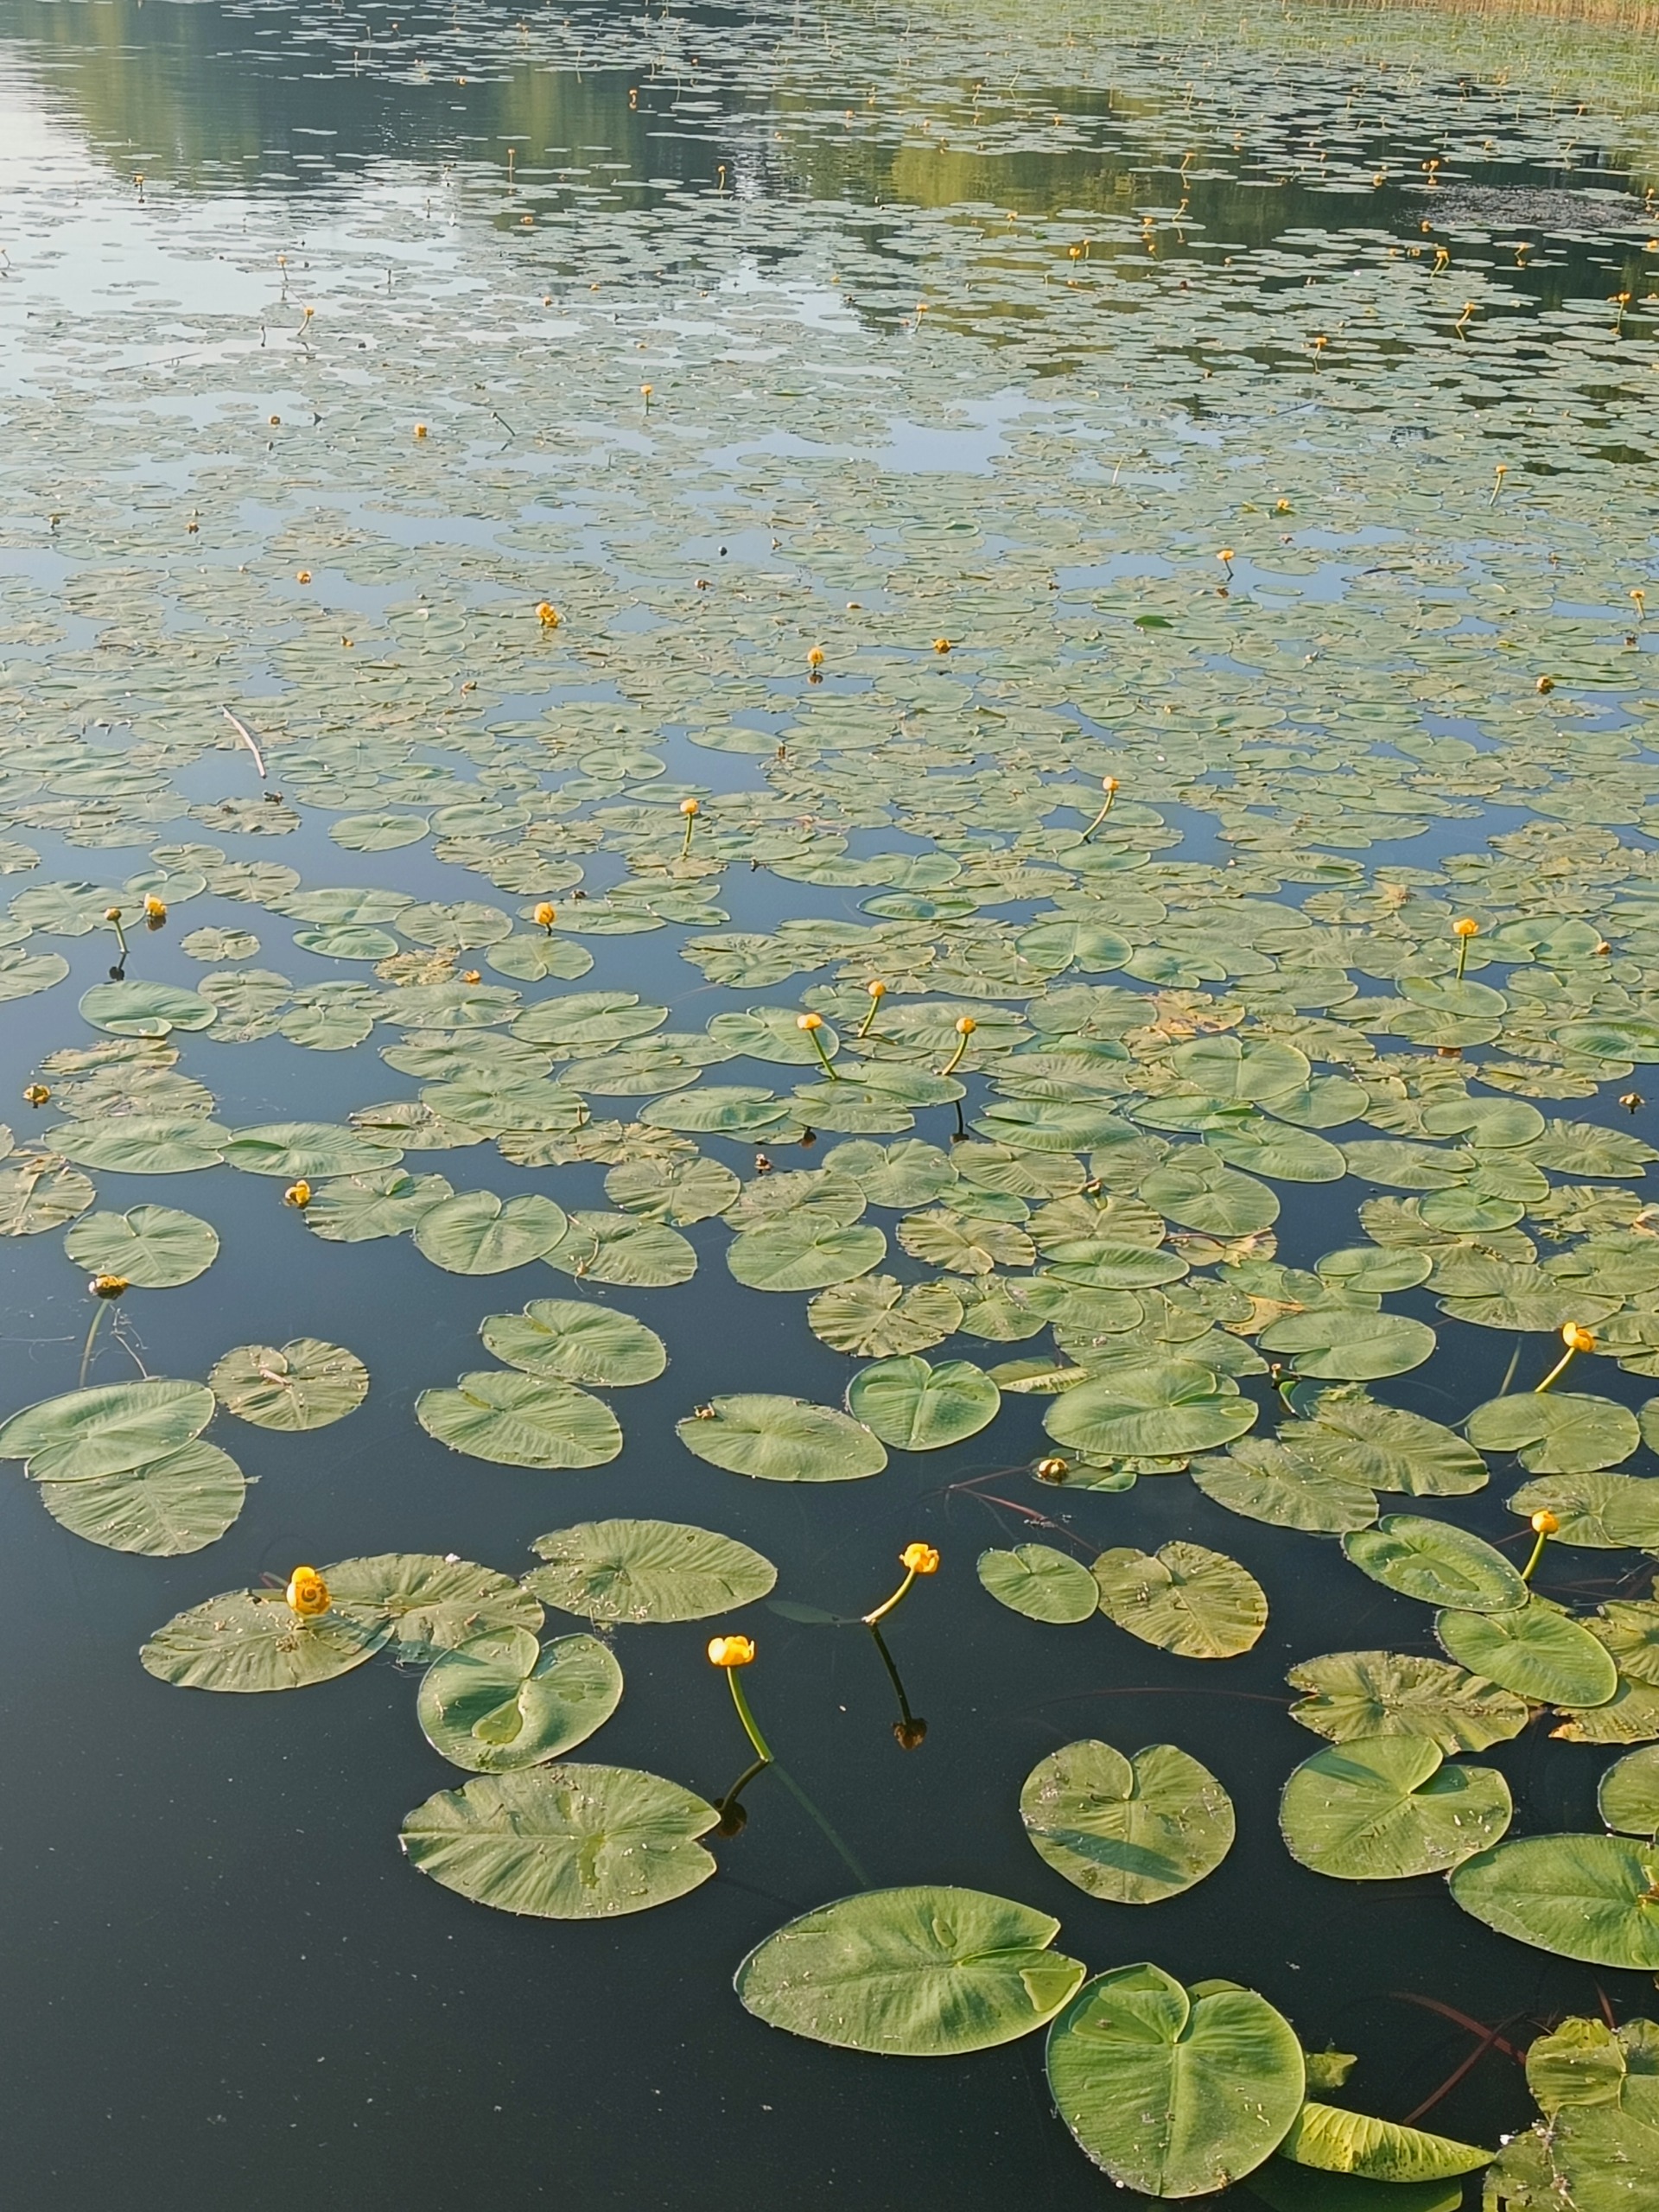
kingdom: Plantae
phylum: Tracheophyta
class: Magnoliopsida
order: Nymphaeales
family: Nymphaeaceae
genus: Nuphar
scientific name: Nuphar lutea
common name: Gul åkande
